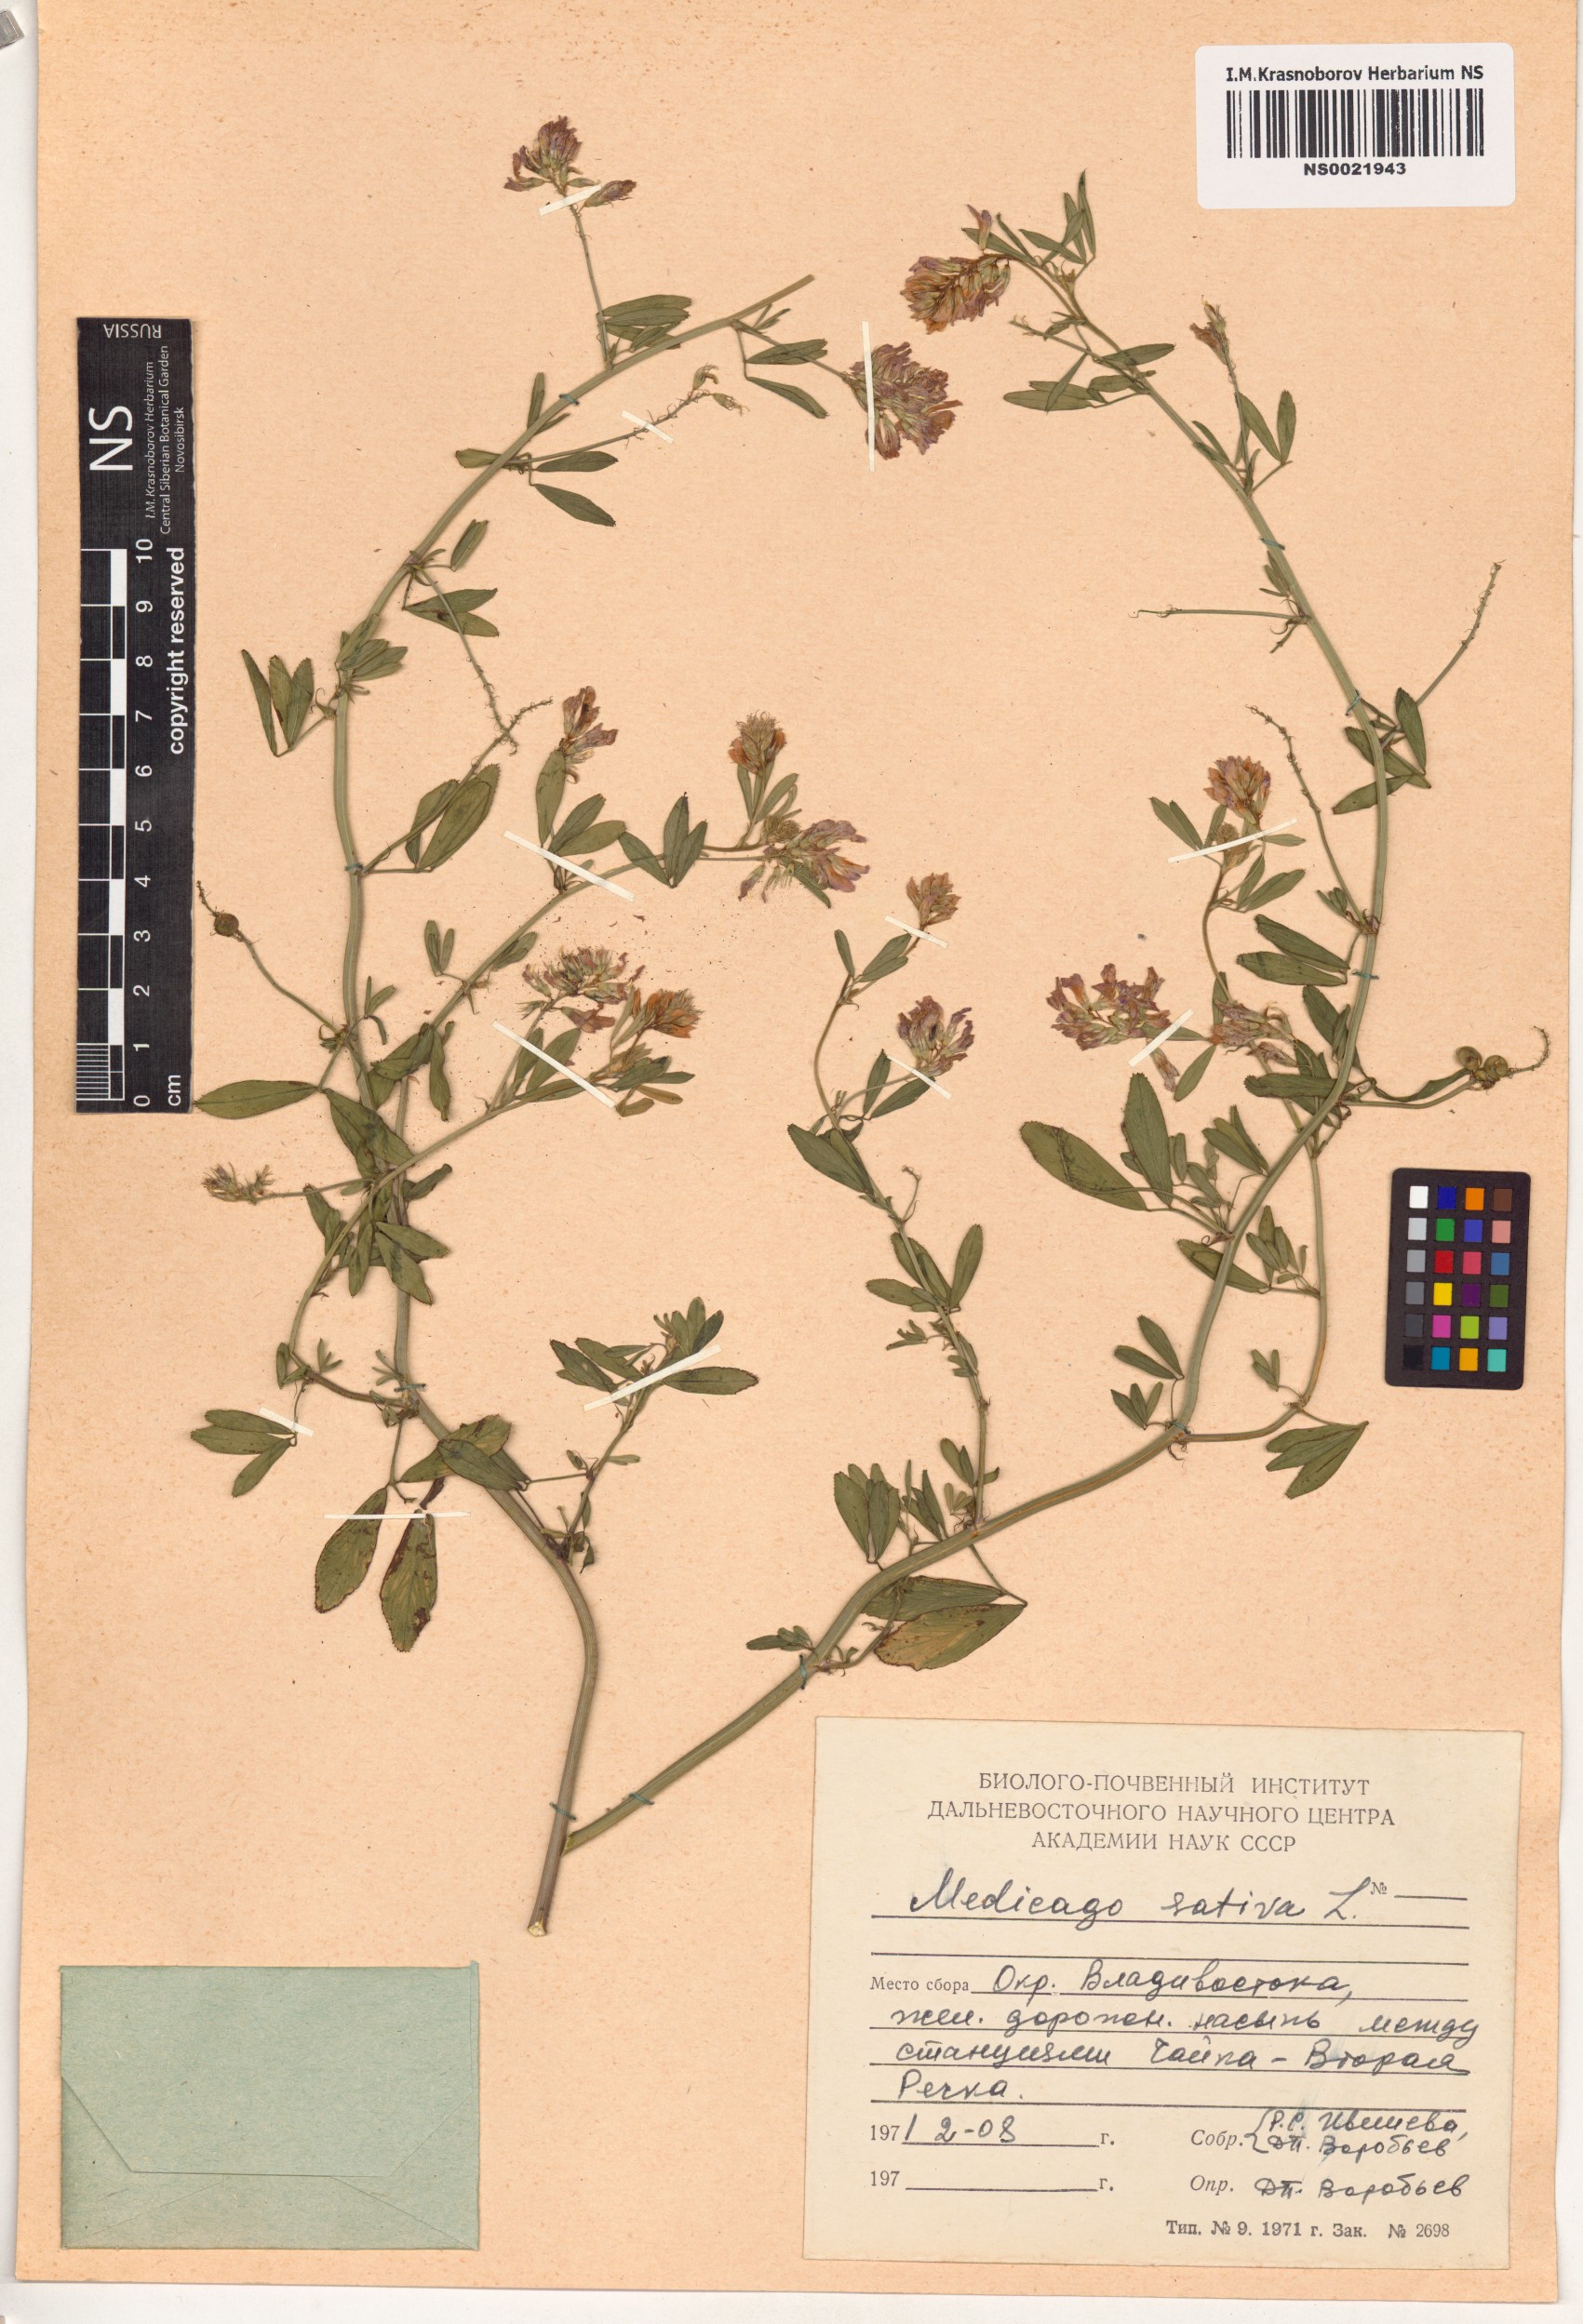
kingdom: Plantae
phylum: Tracheophyta
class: Magnoliopsida
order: Fabales
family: Fabaceae
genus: Medicago
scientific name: Medicago sativa
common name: Alfalfa
